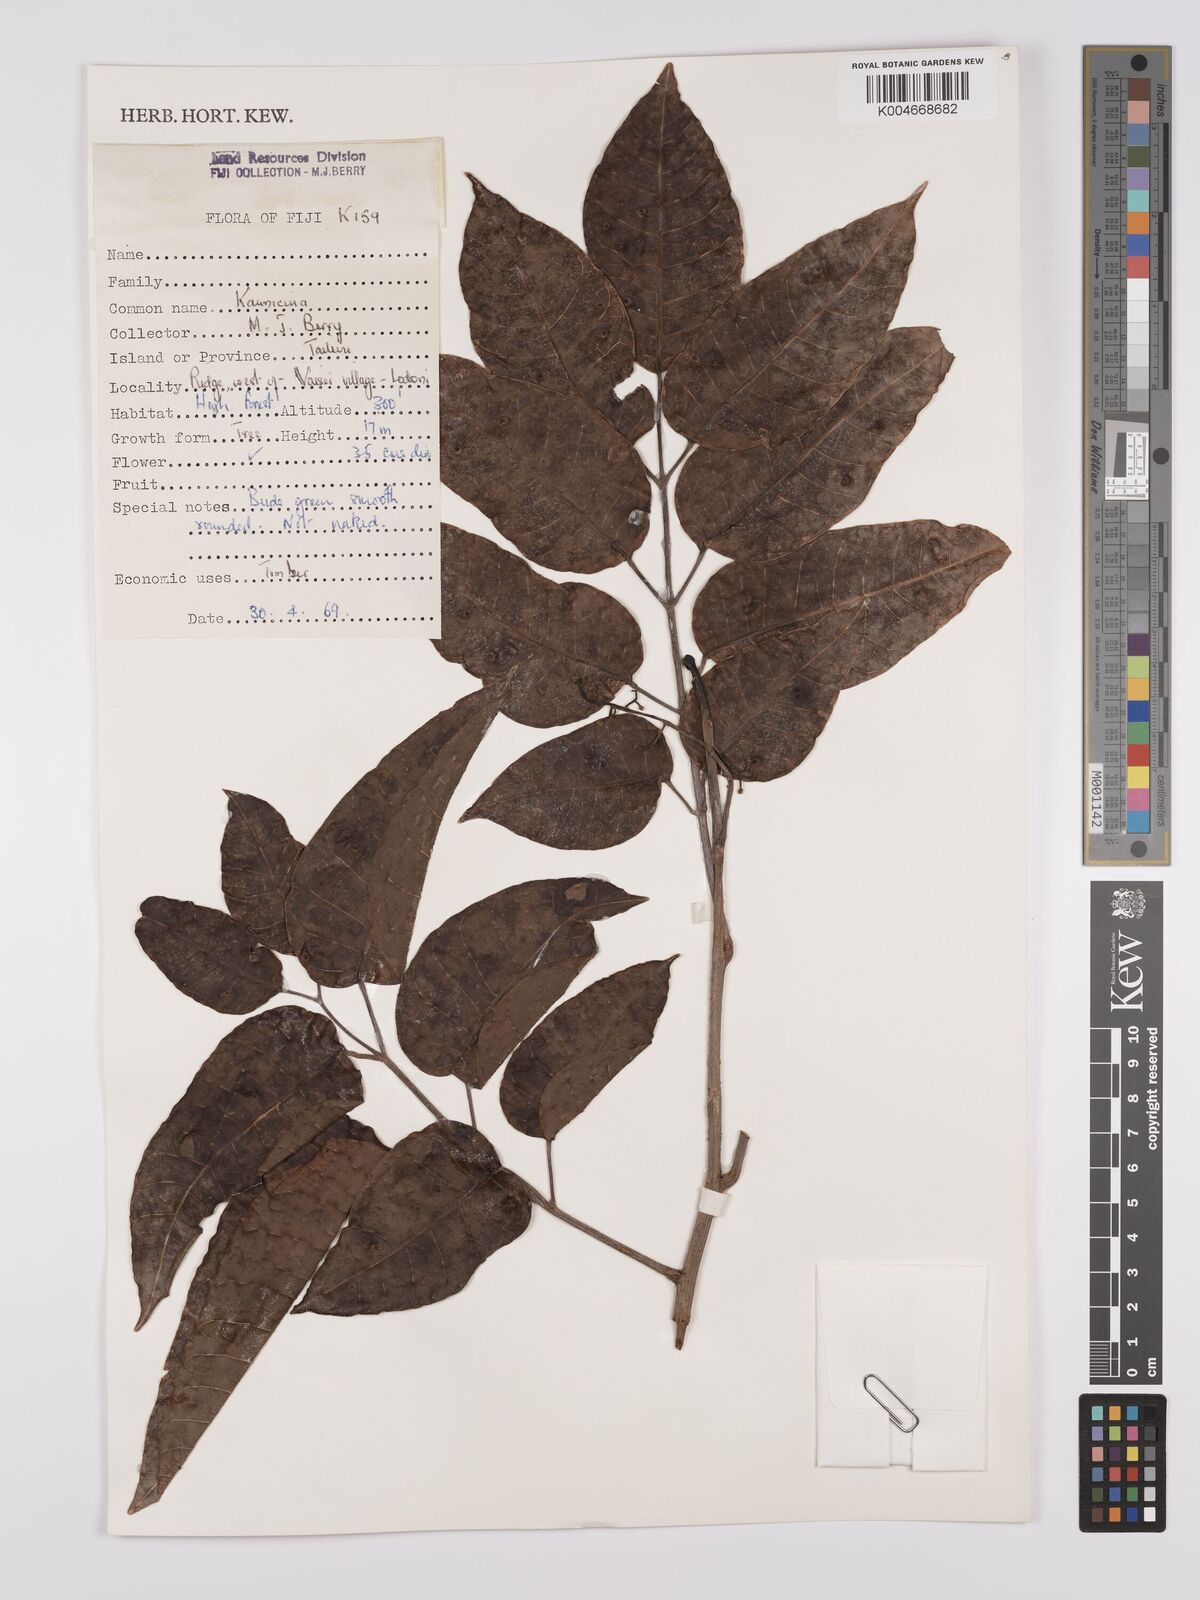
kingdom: Plantae
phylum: Tracheophyta
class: Magnoliopsida
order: Sapindales
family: Burseraceae
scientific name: Burseraceae
